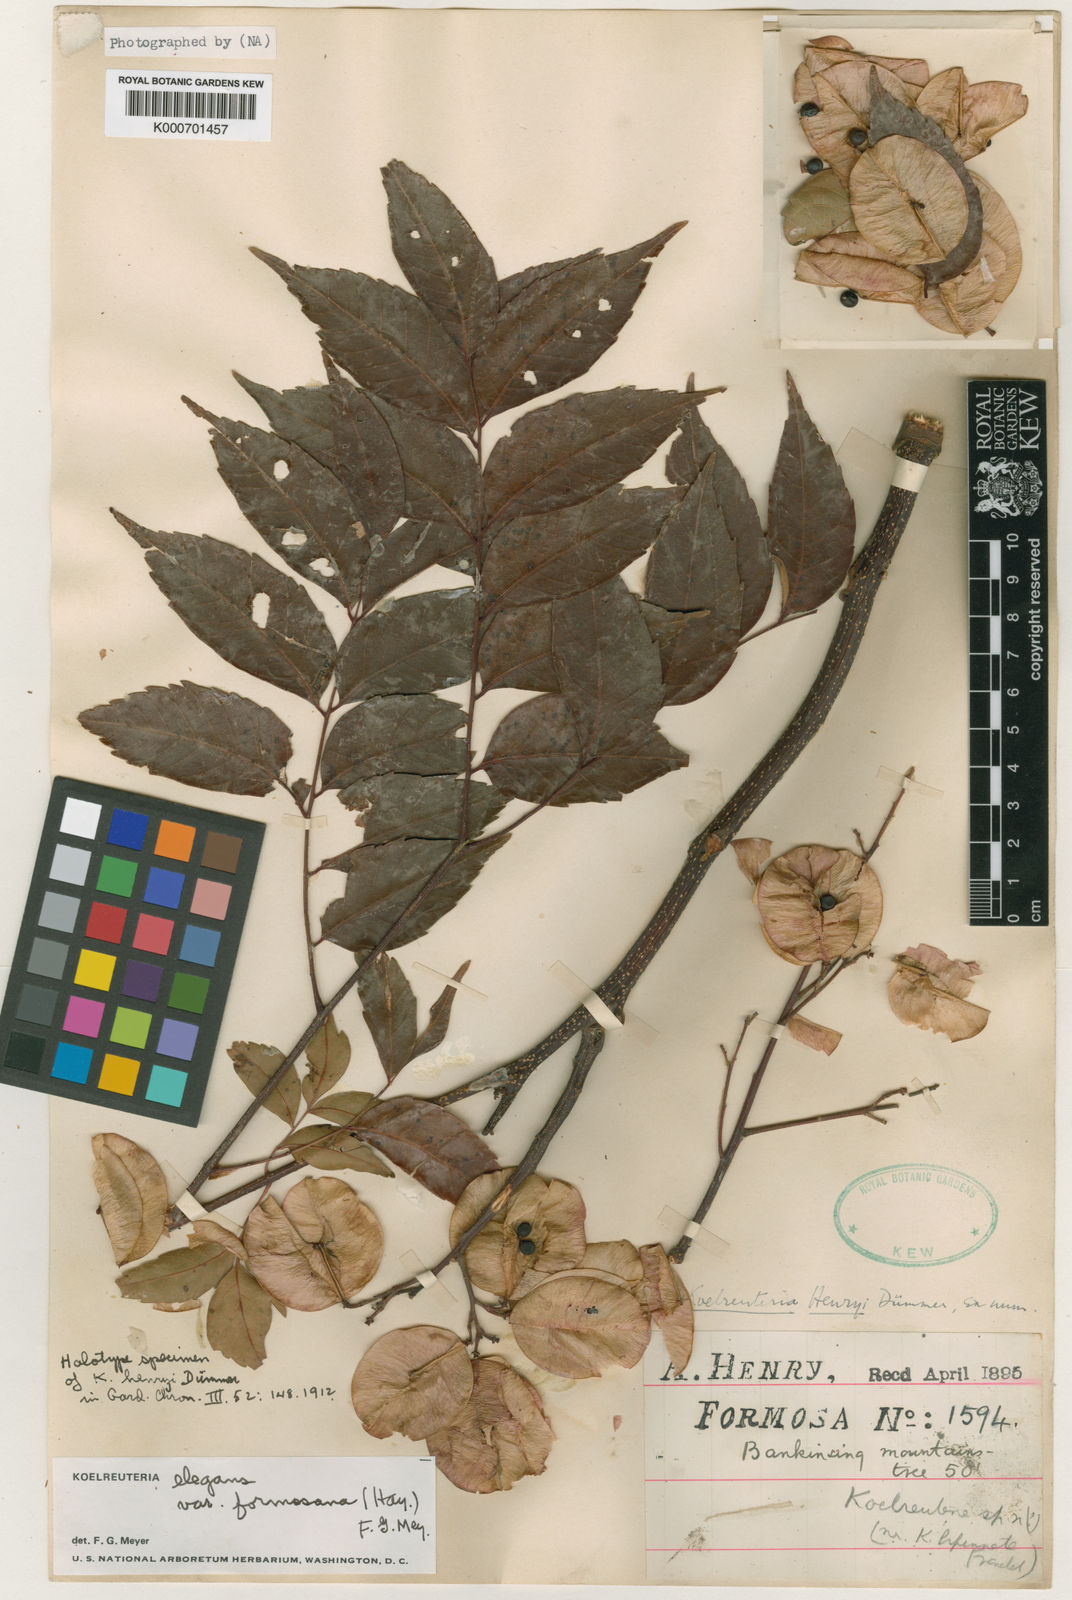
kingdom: Plantae
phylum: Tracheophyta
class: Magnoliopsida
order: Sapindales
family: Sapindaceae
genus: Koelreuteria
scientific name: Koelreuteria elegans
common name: Chinese flame tree
